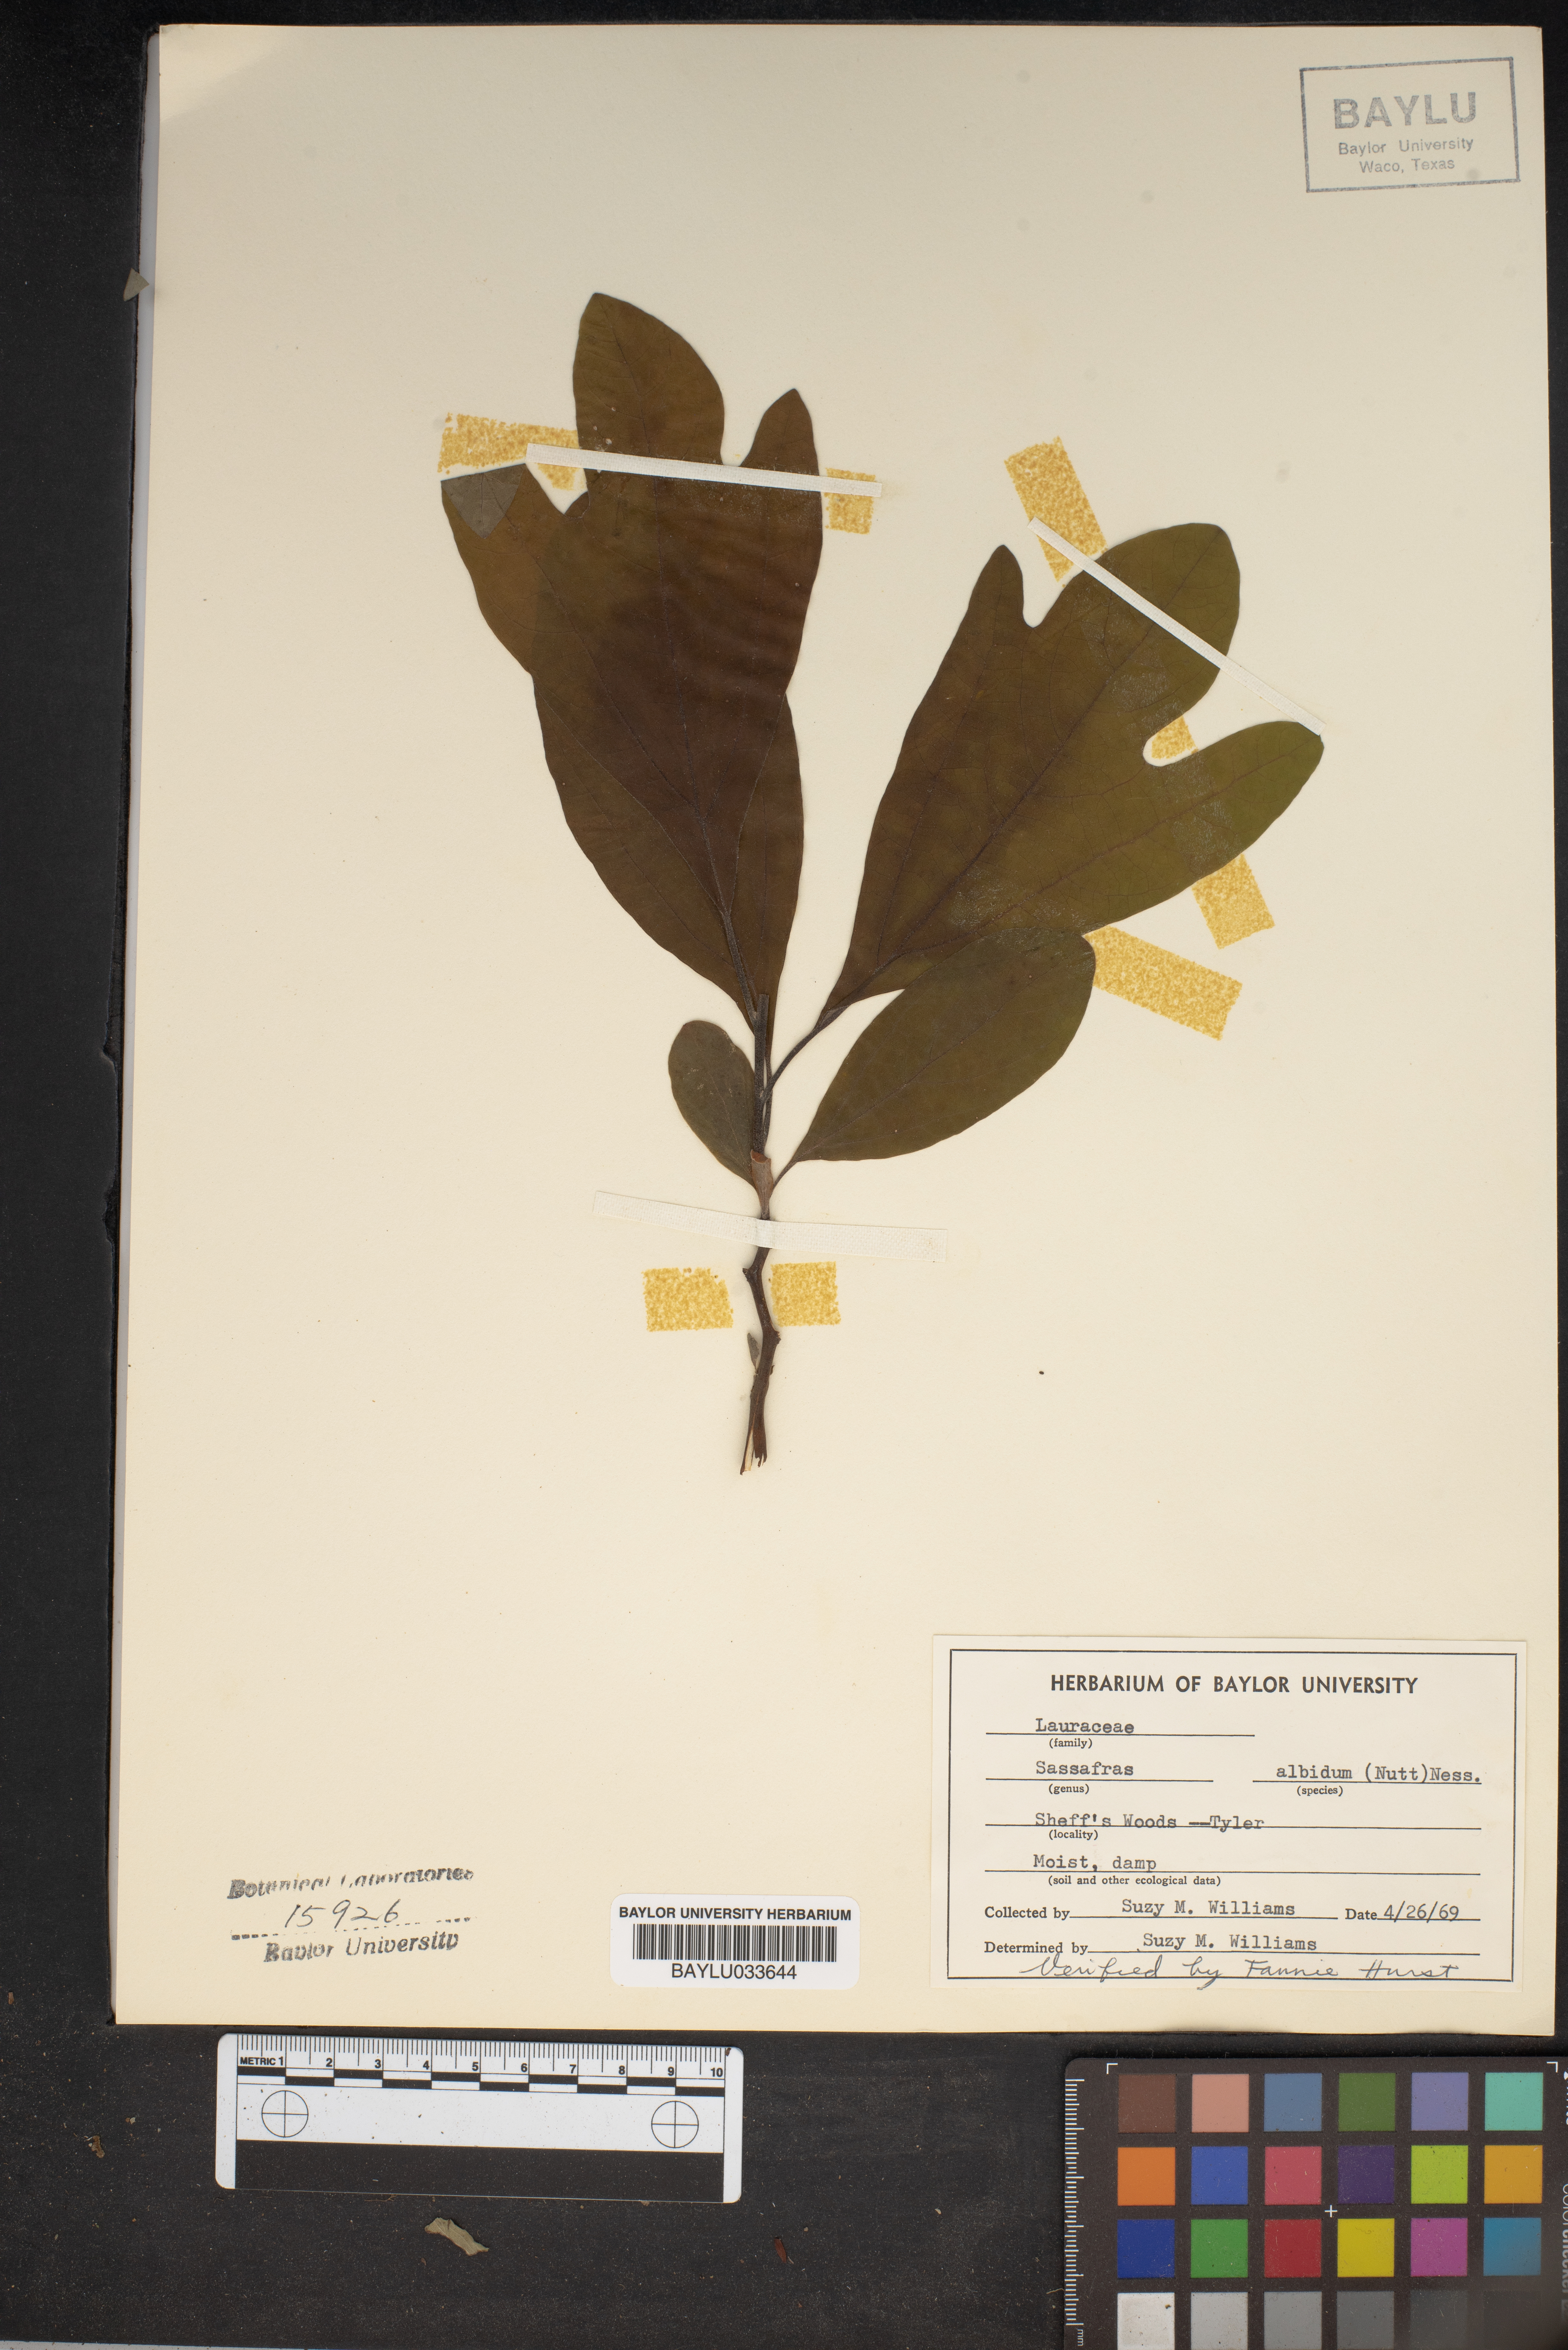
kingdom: Plantae
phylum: Tracheophyta
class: Magnoliopsida
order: Laurales
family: Lauraceae
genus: Sassafras
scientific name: Sassafras albidum
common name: Sassafras
